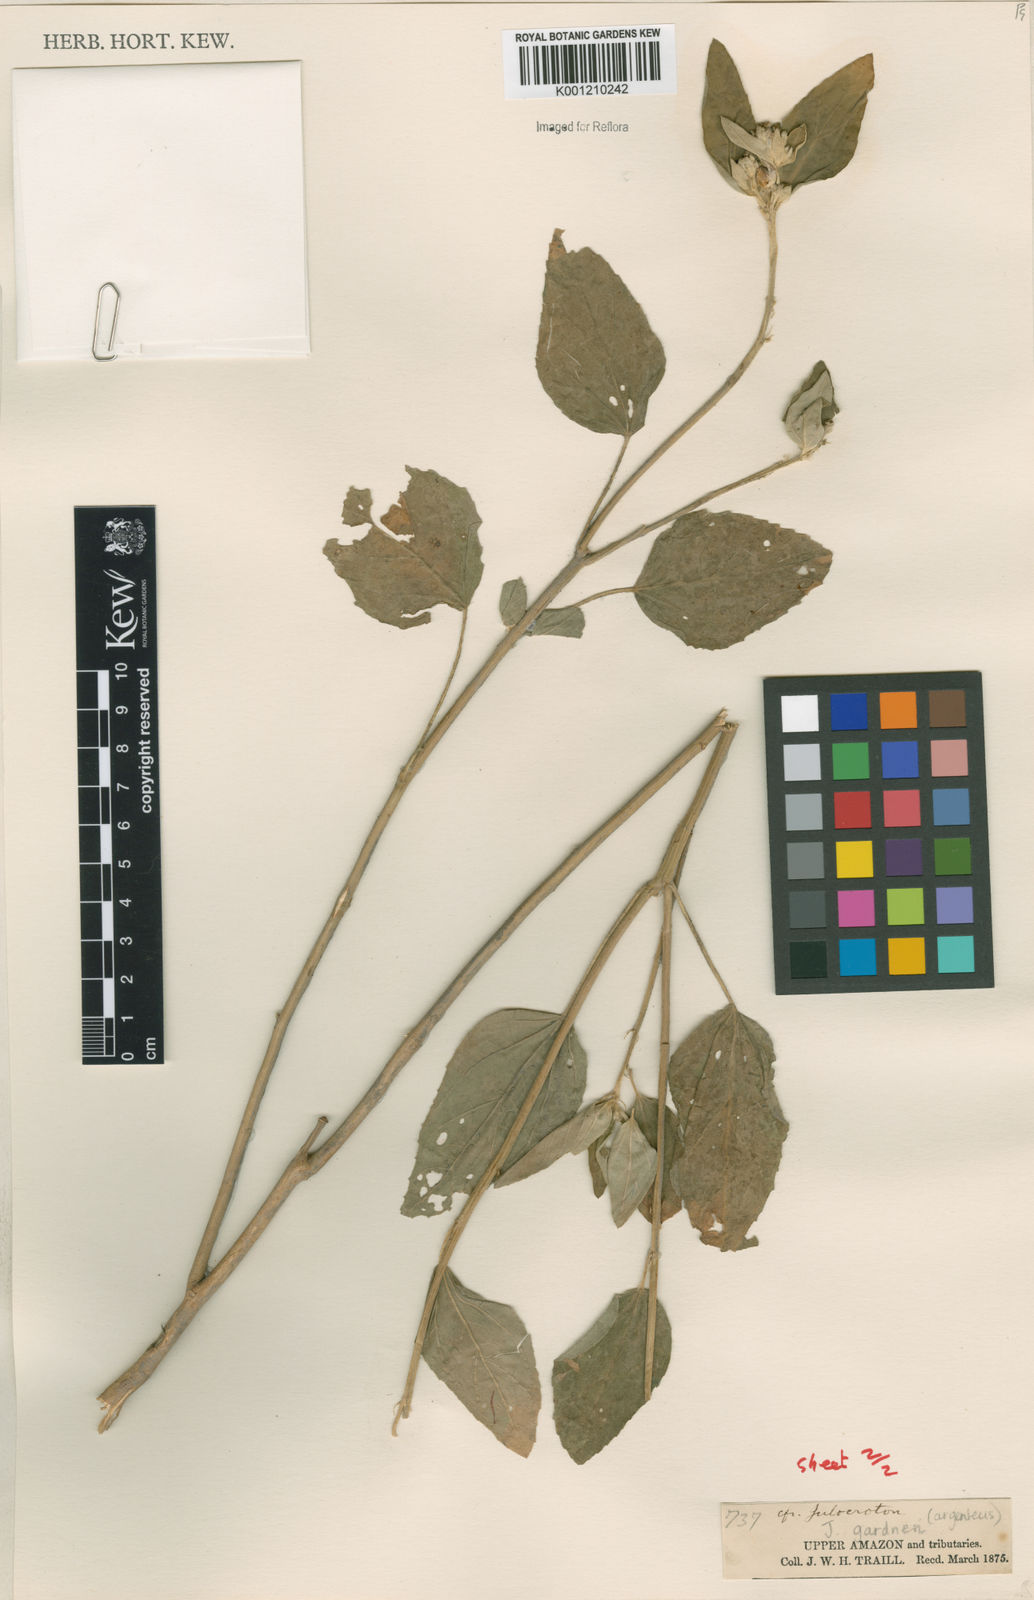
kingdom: Plantae
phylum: Tracheophyta
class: Magnoliopsida
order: Malpighiales
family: Euphorbiaceae
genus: Croton
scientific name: Croton
